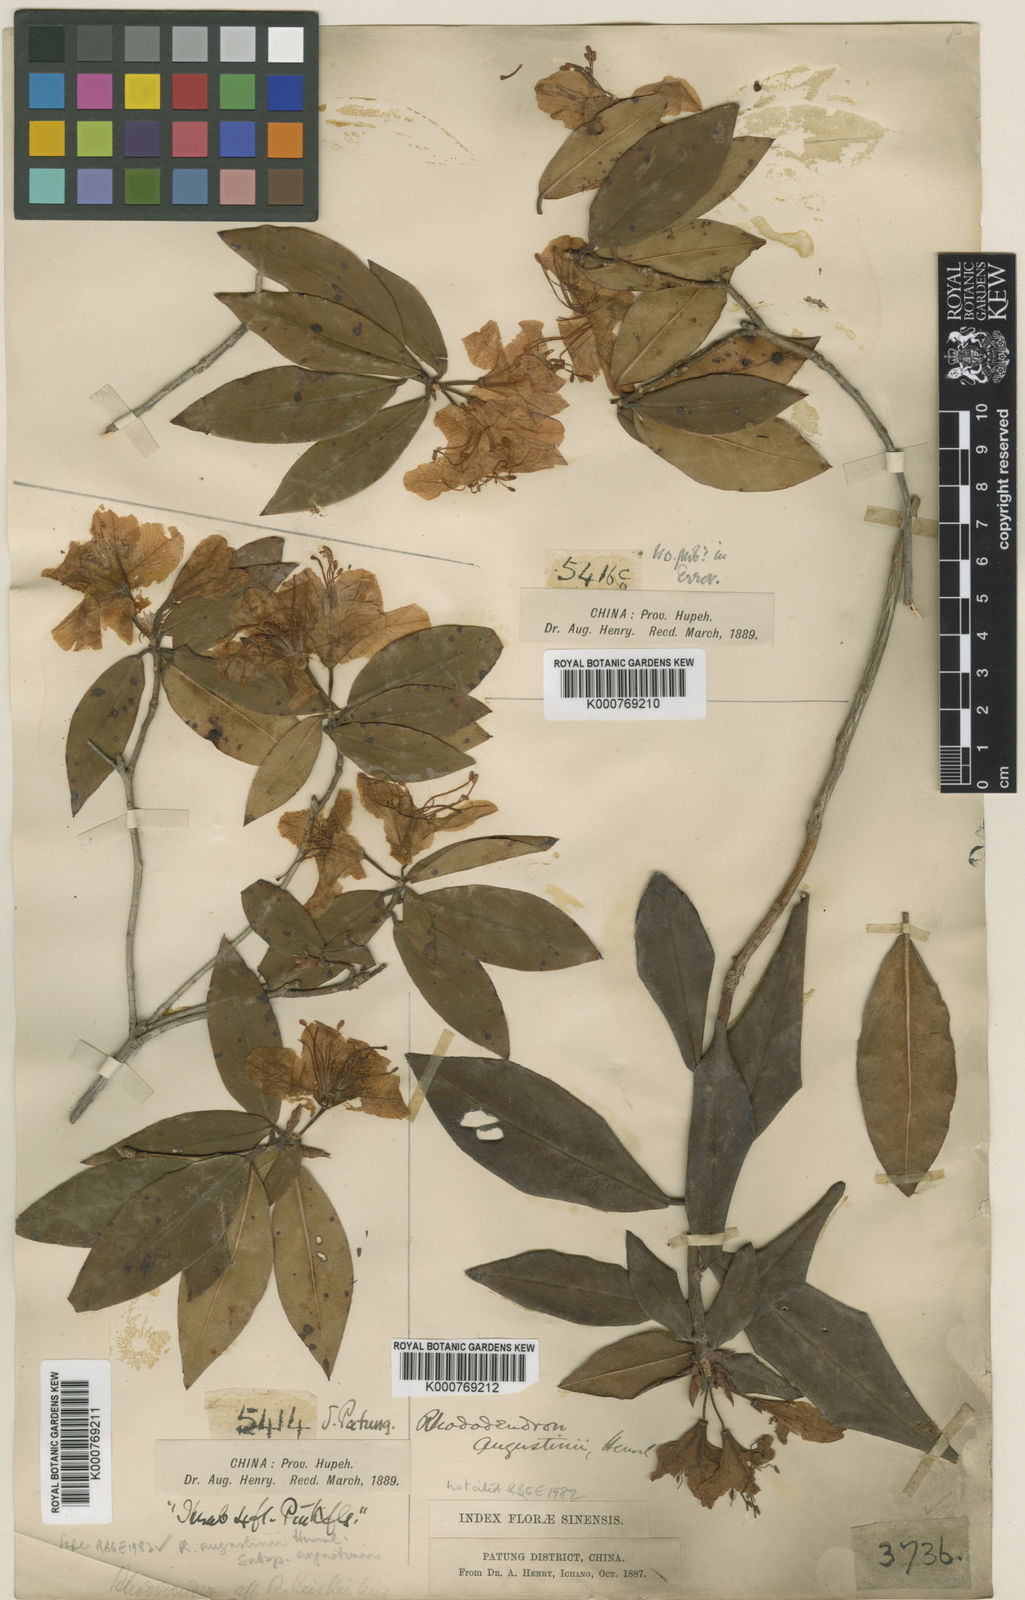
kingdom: Plantae
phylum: Tracheophyta
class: Magnoliopsida
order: Ericales
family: Ericaceae
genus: Rhododendron
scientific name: Rhododendron augustinii
